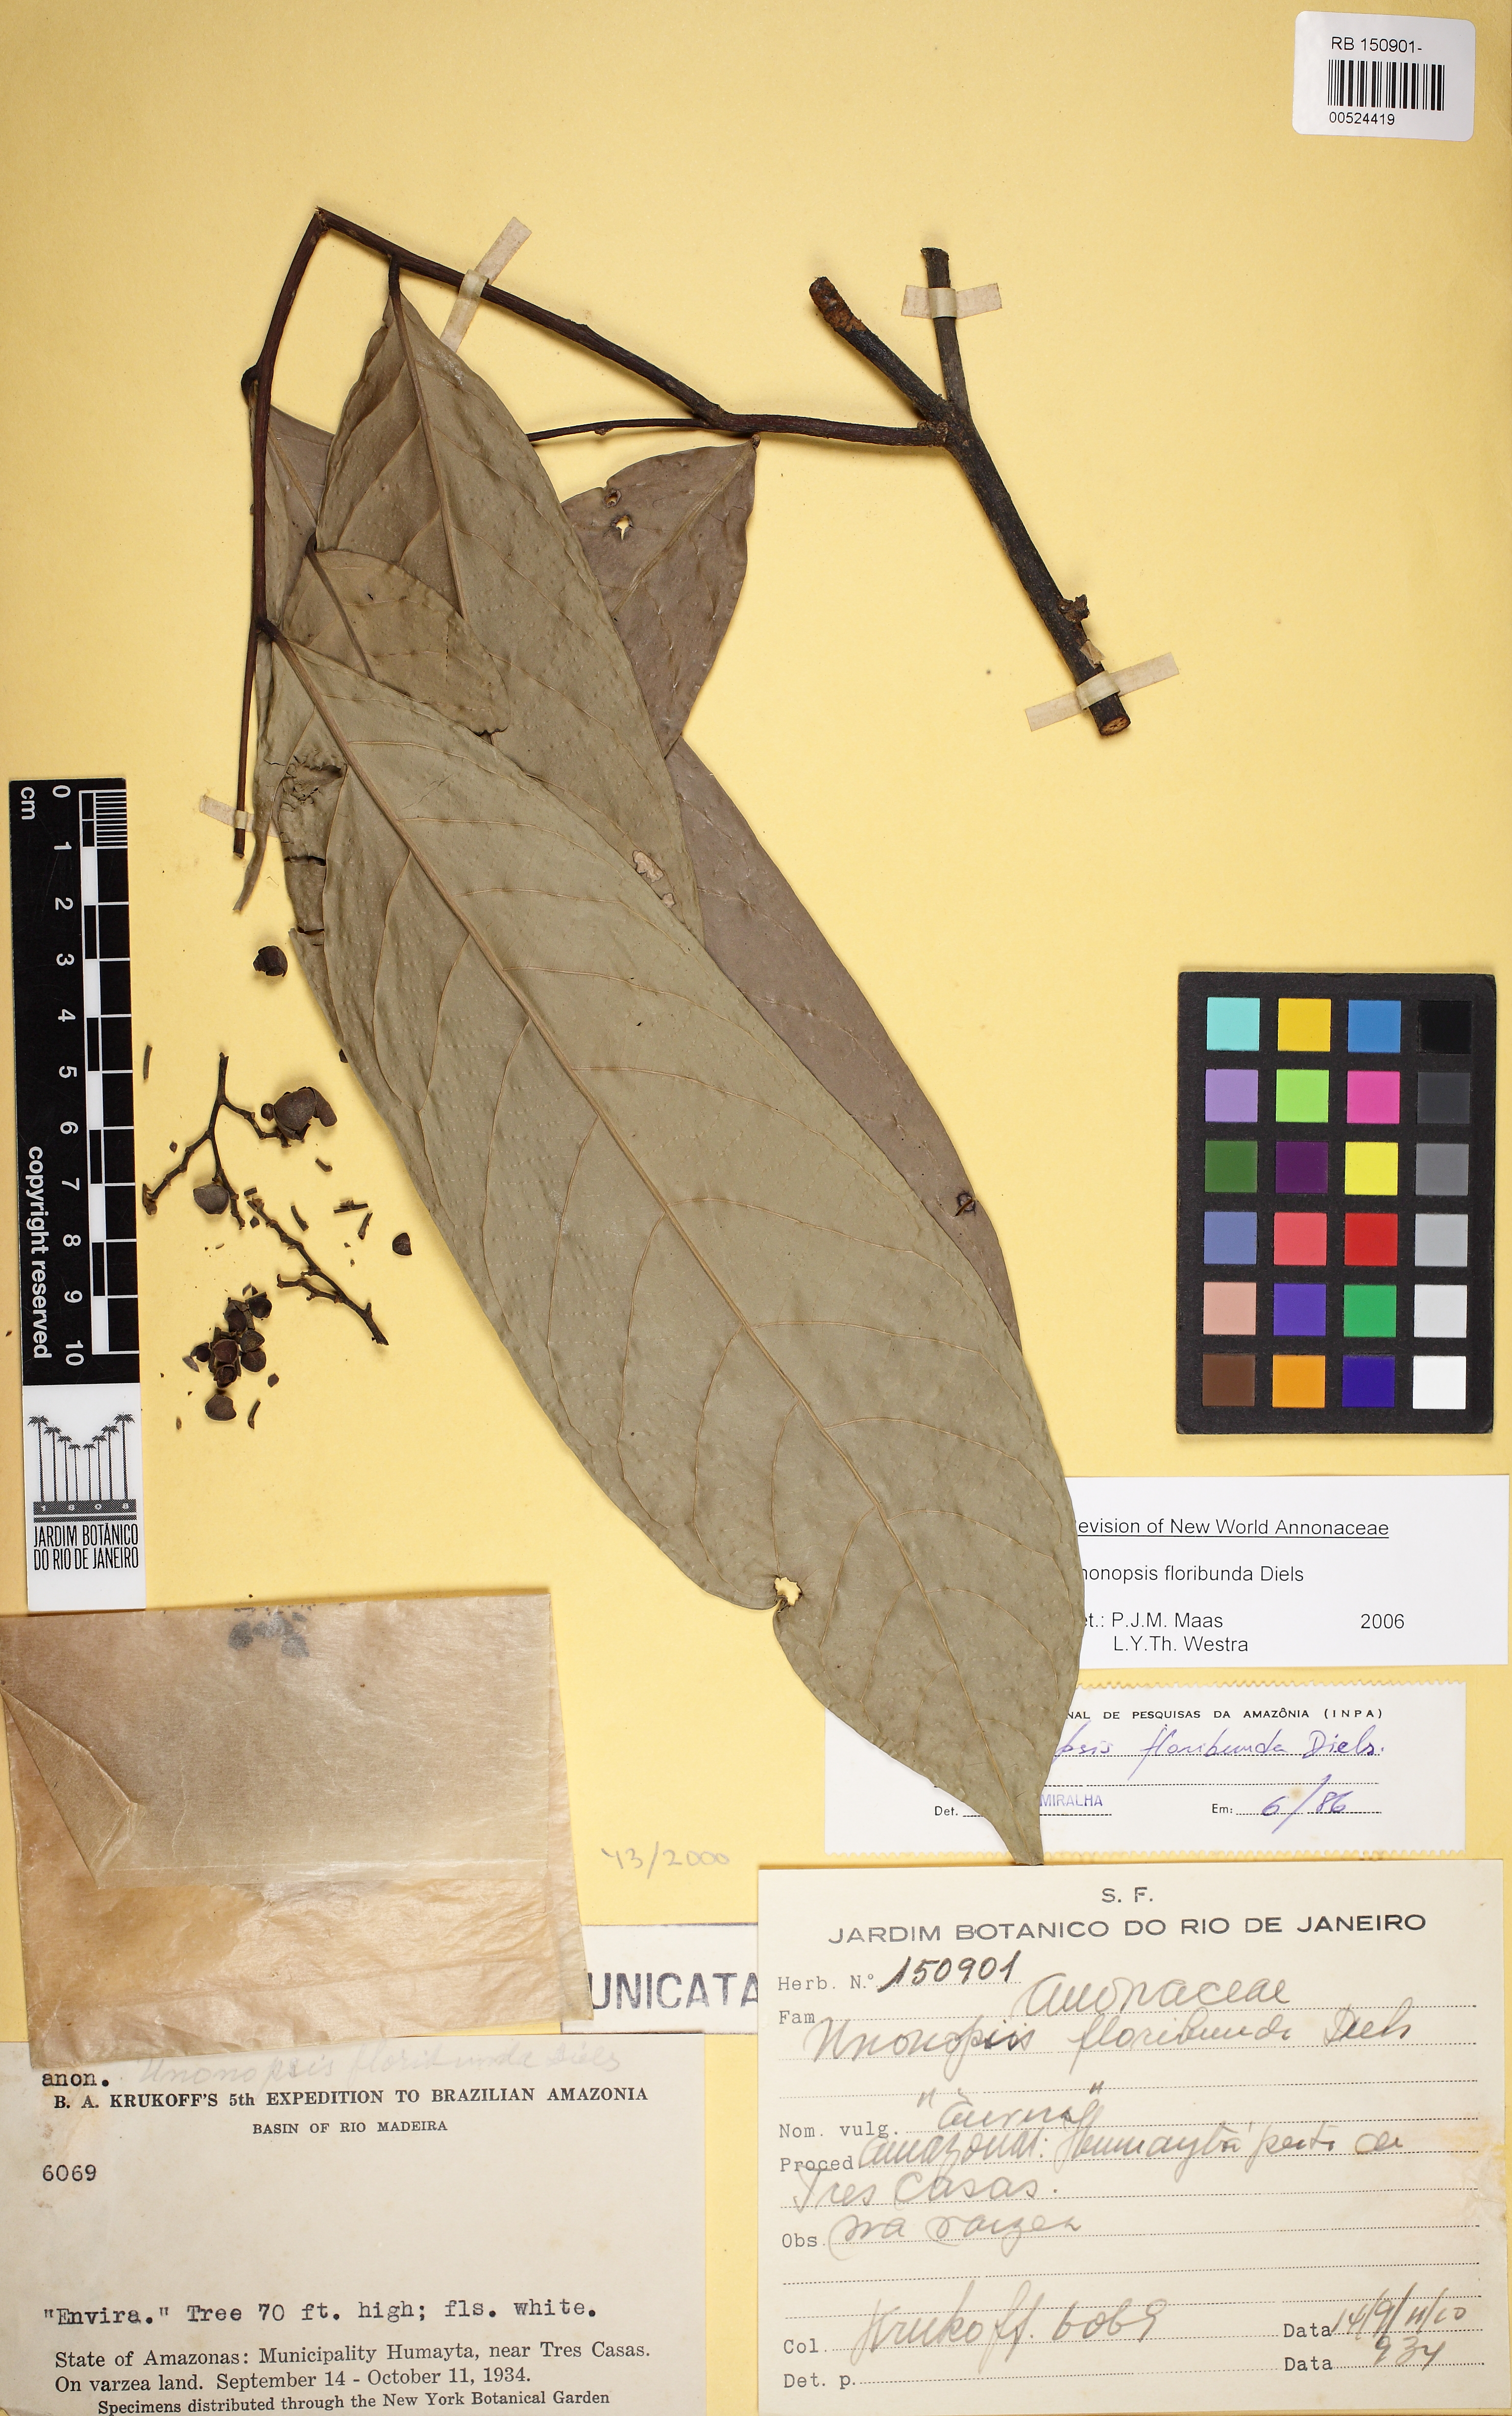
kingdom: Plantae
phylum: Tracheophyta
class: Magnoliopsida
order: Magnoliales
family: Annonaceae
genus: Unonopsis
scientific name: Unonopsis floribunda
